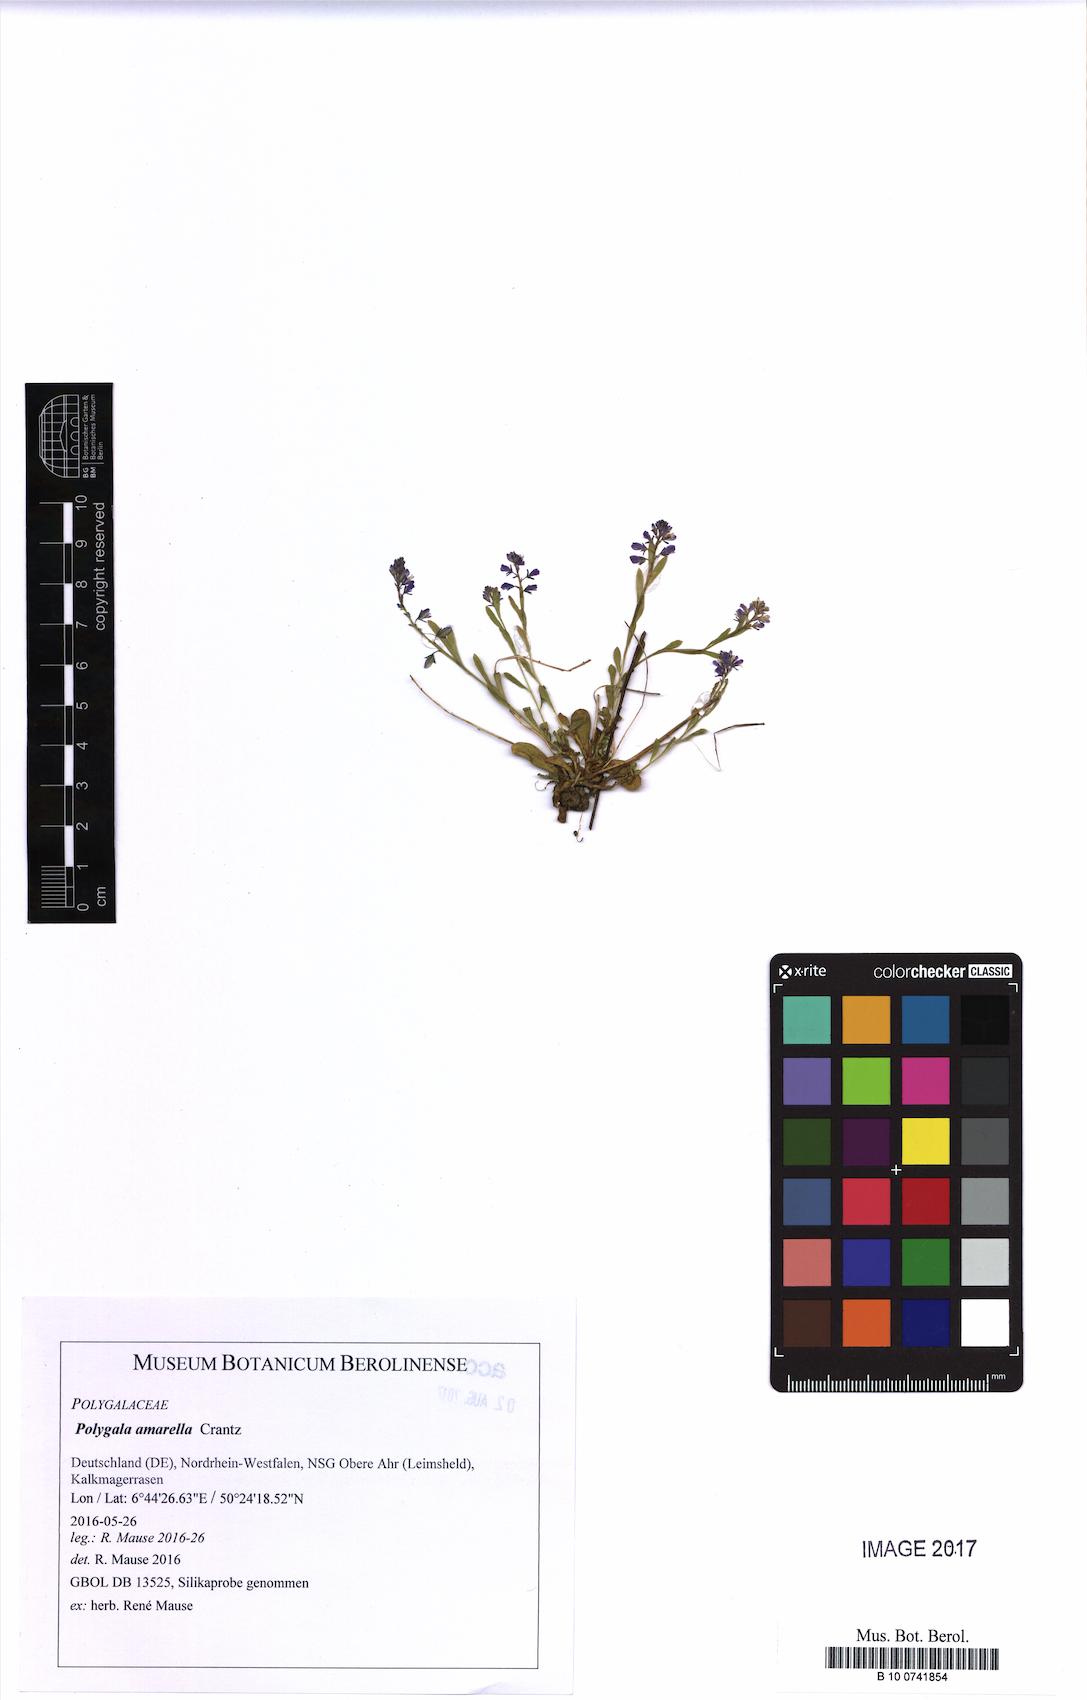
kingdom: Plantae
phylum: Tracheophyta
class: Magnoliopsida
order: Fabales
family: Polygalaceae
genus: Polygala
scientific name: Polygala amarella
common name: Dwarf milkwort
